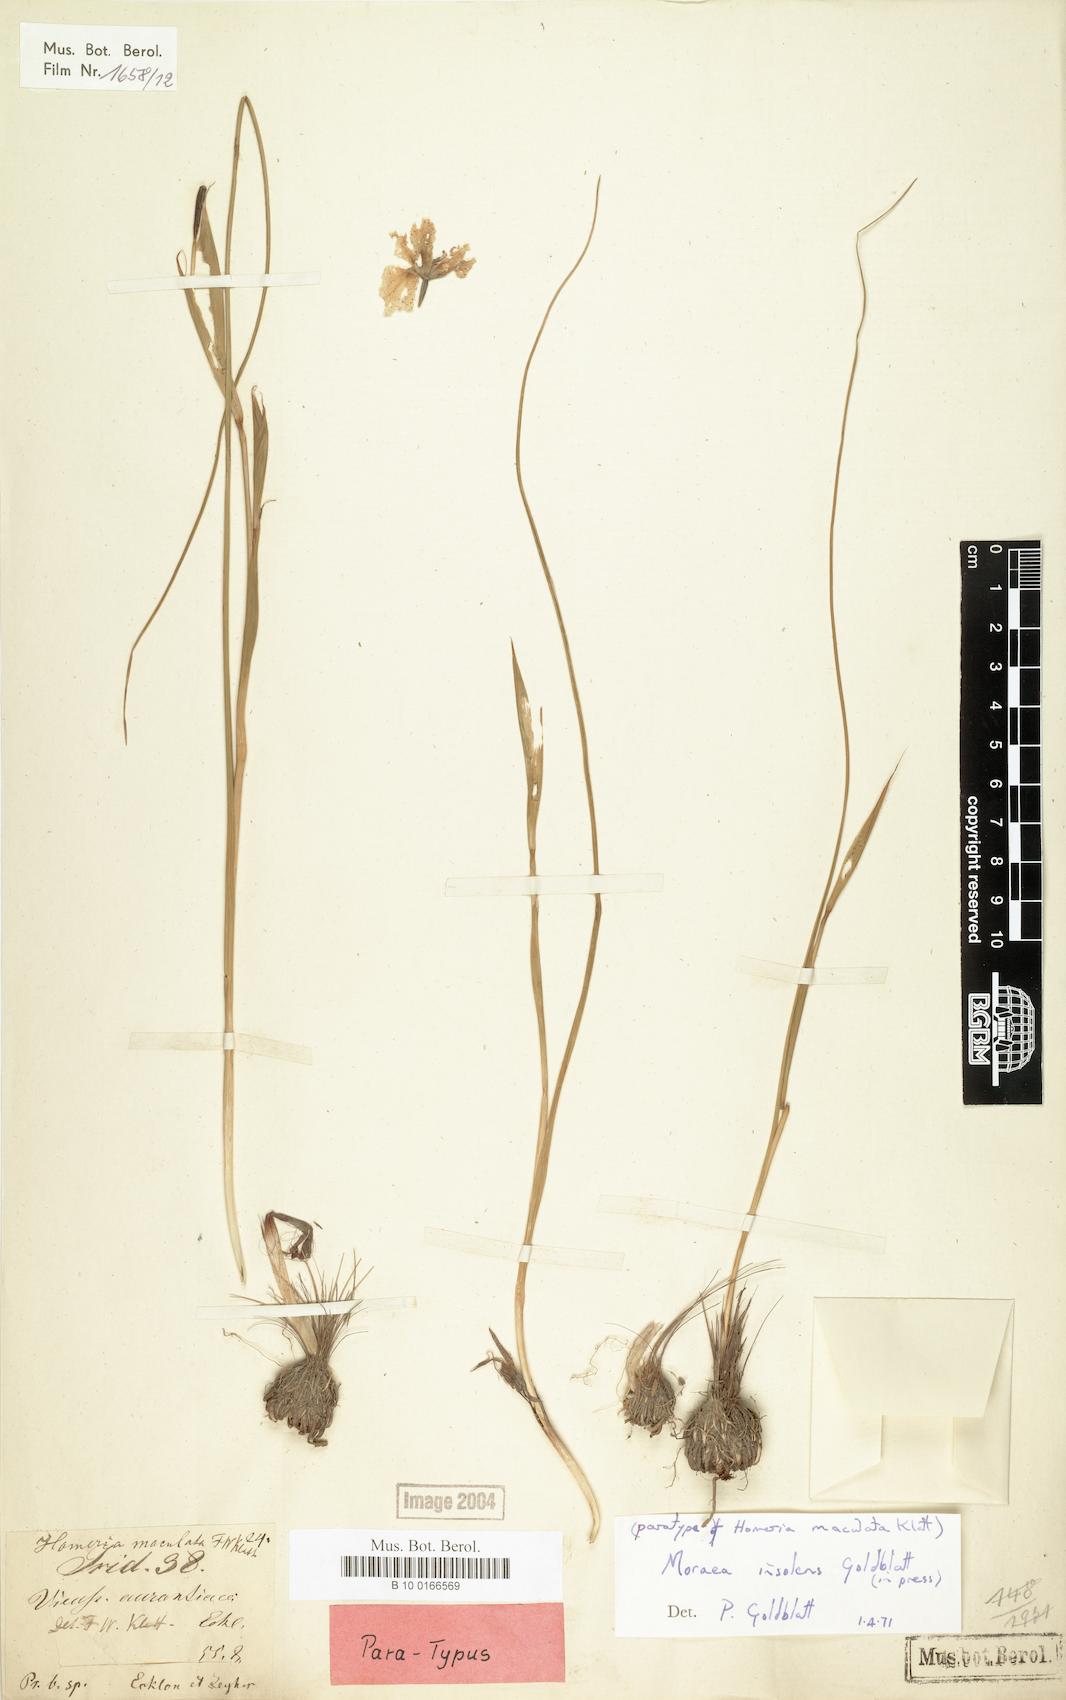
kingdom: Plantae
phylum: Tracheophyta
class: Liliopsida
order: Asparagales
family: Iridaceae
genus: Moraea
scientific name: Moraea insolens
